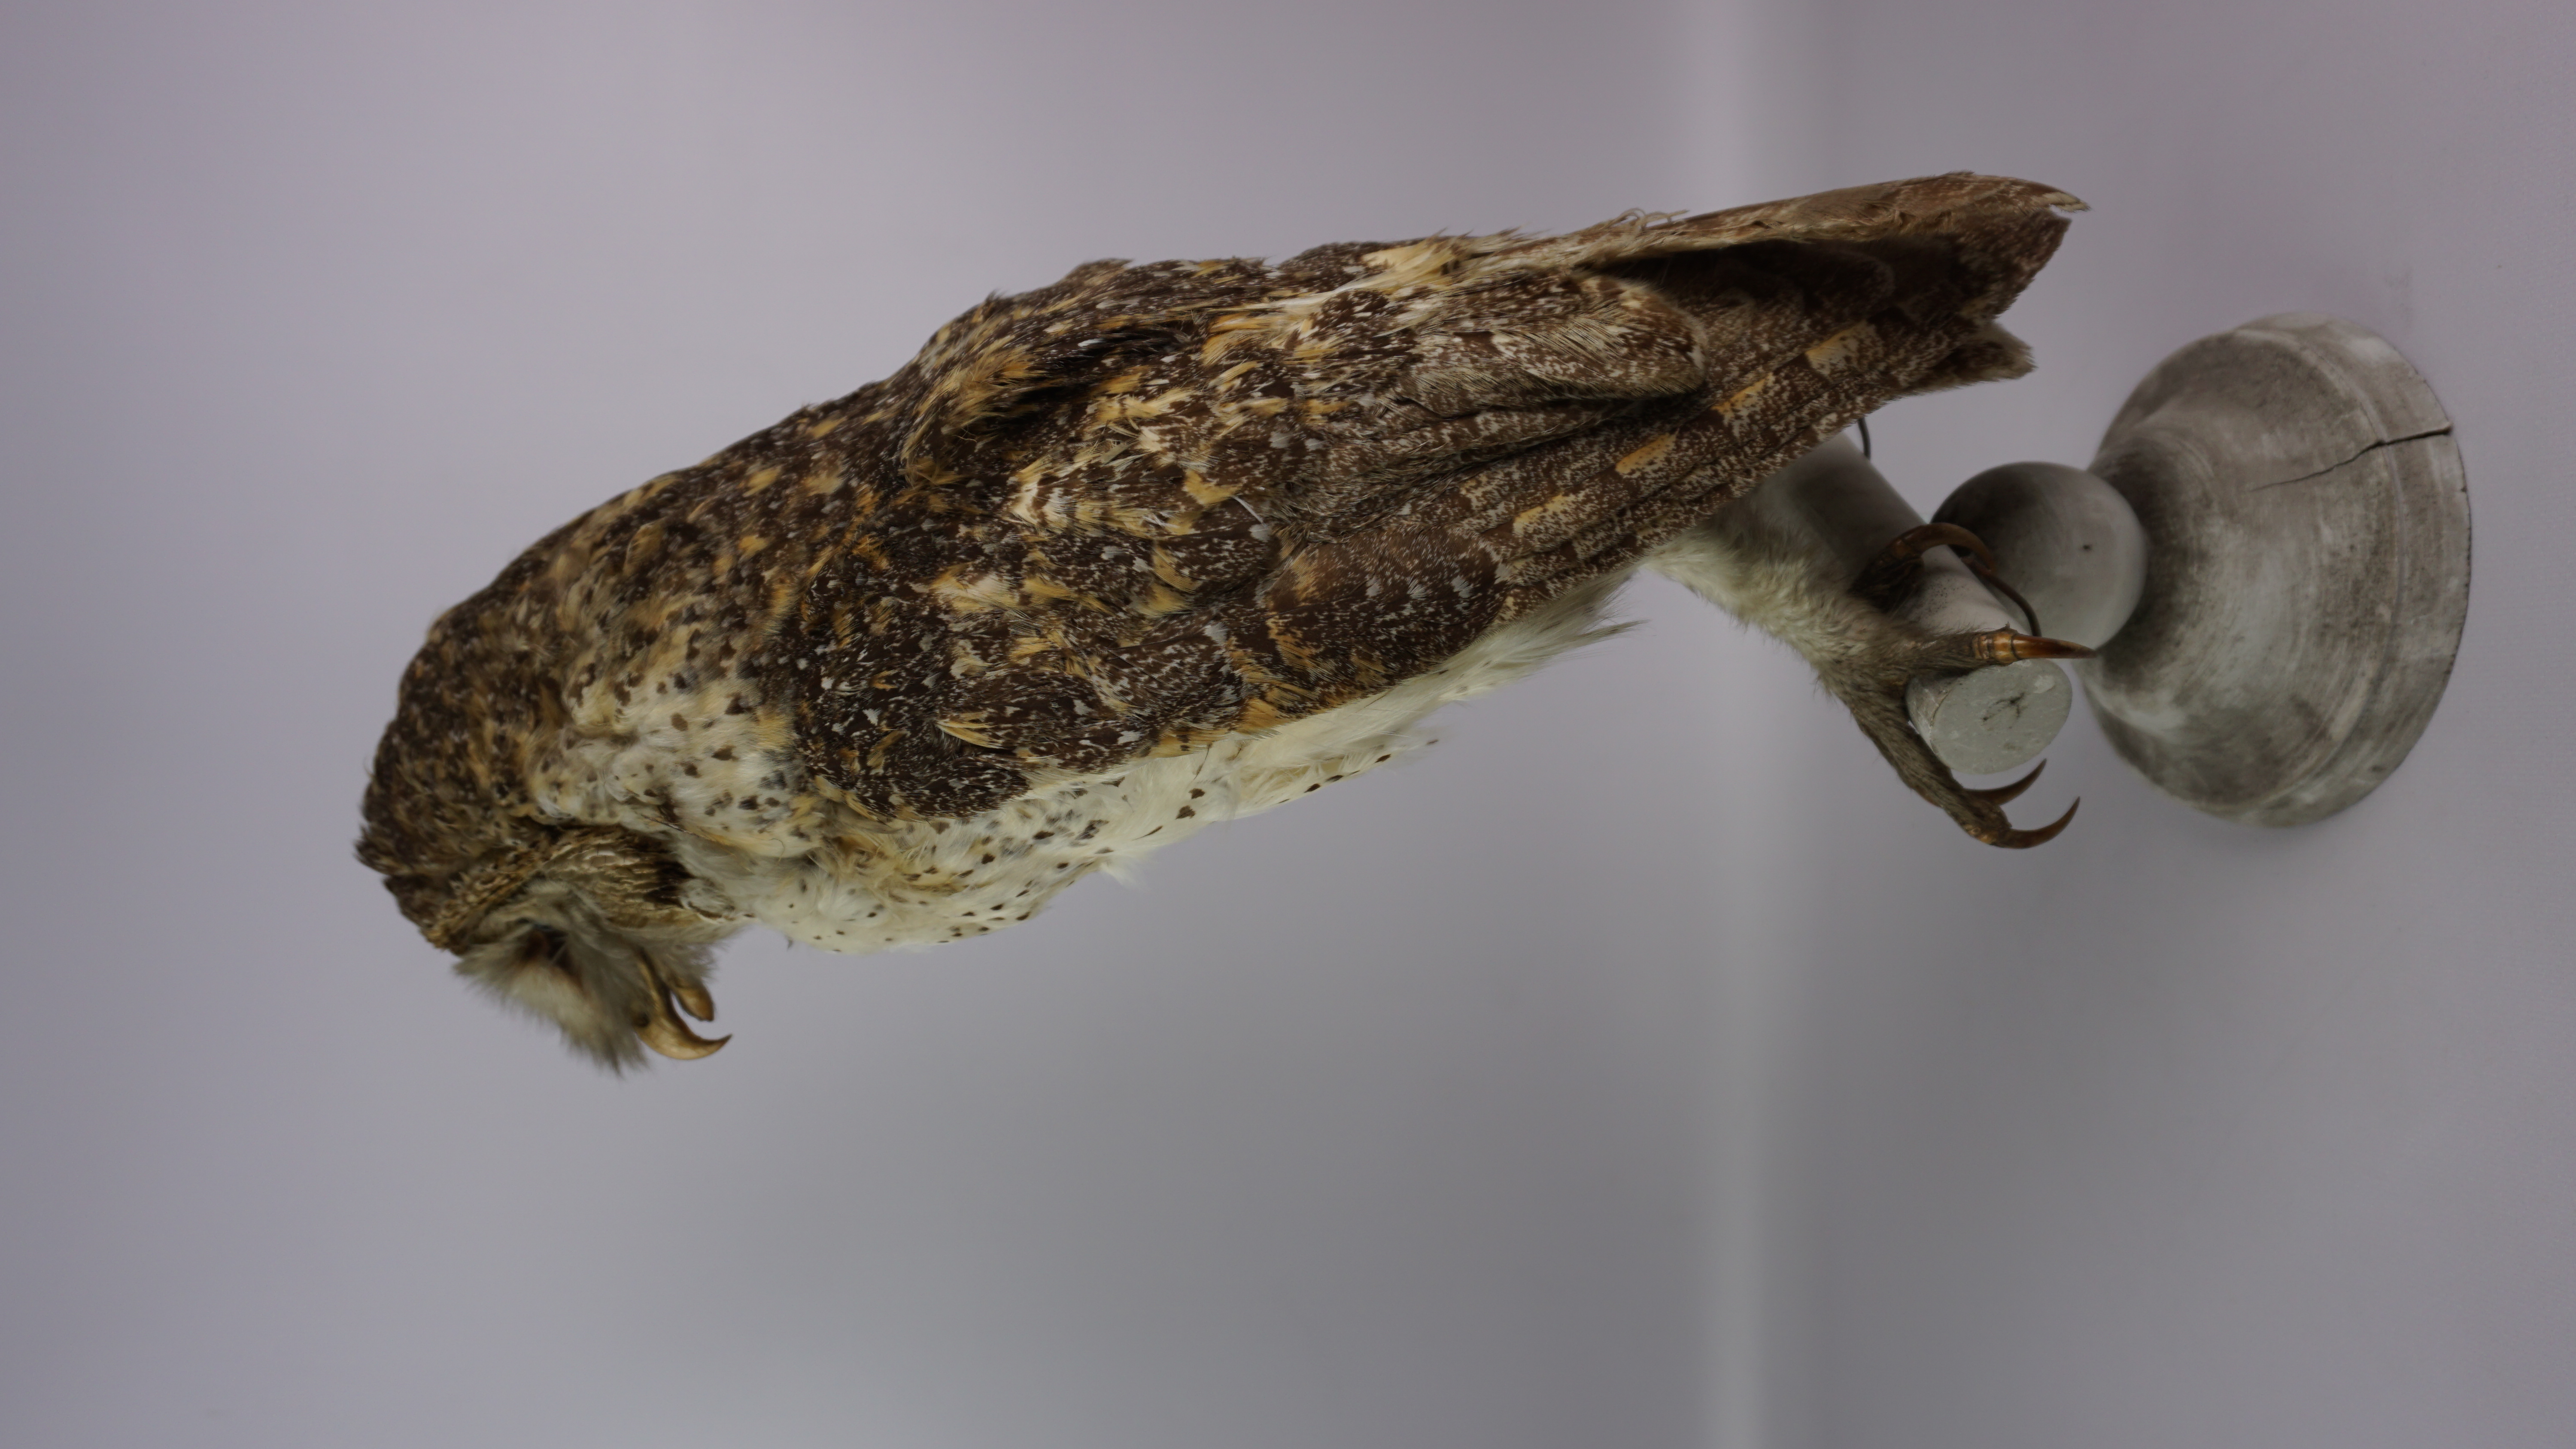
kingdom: Animalia
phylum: Chordata
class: Aves
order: Strigiformes
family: Tytonidae
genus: Tyto
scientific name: Tyto novaehollandiae
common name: Australian masked owl
